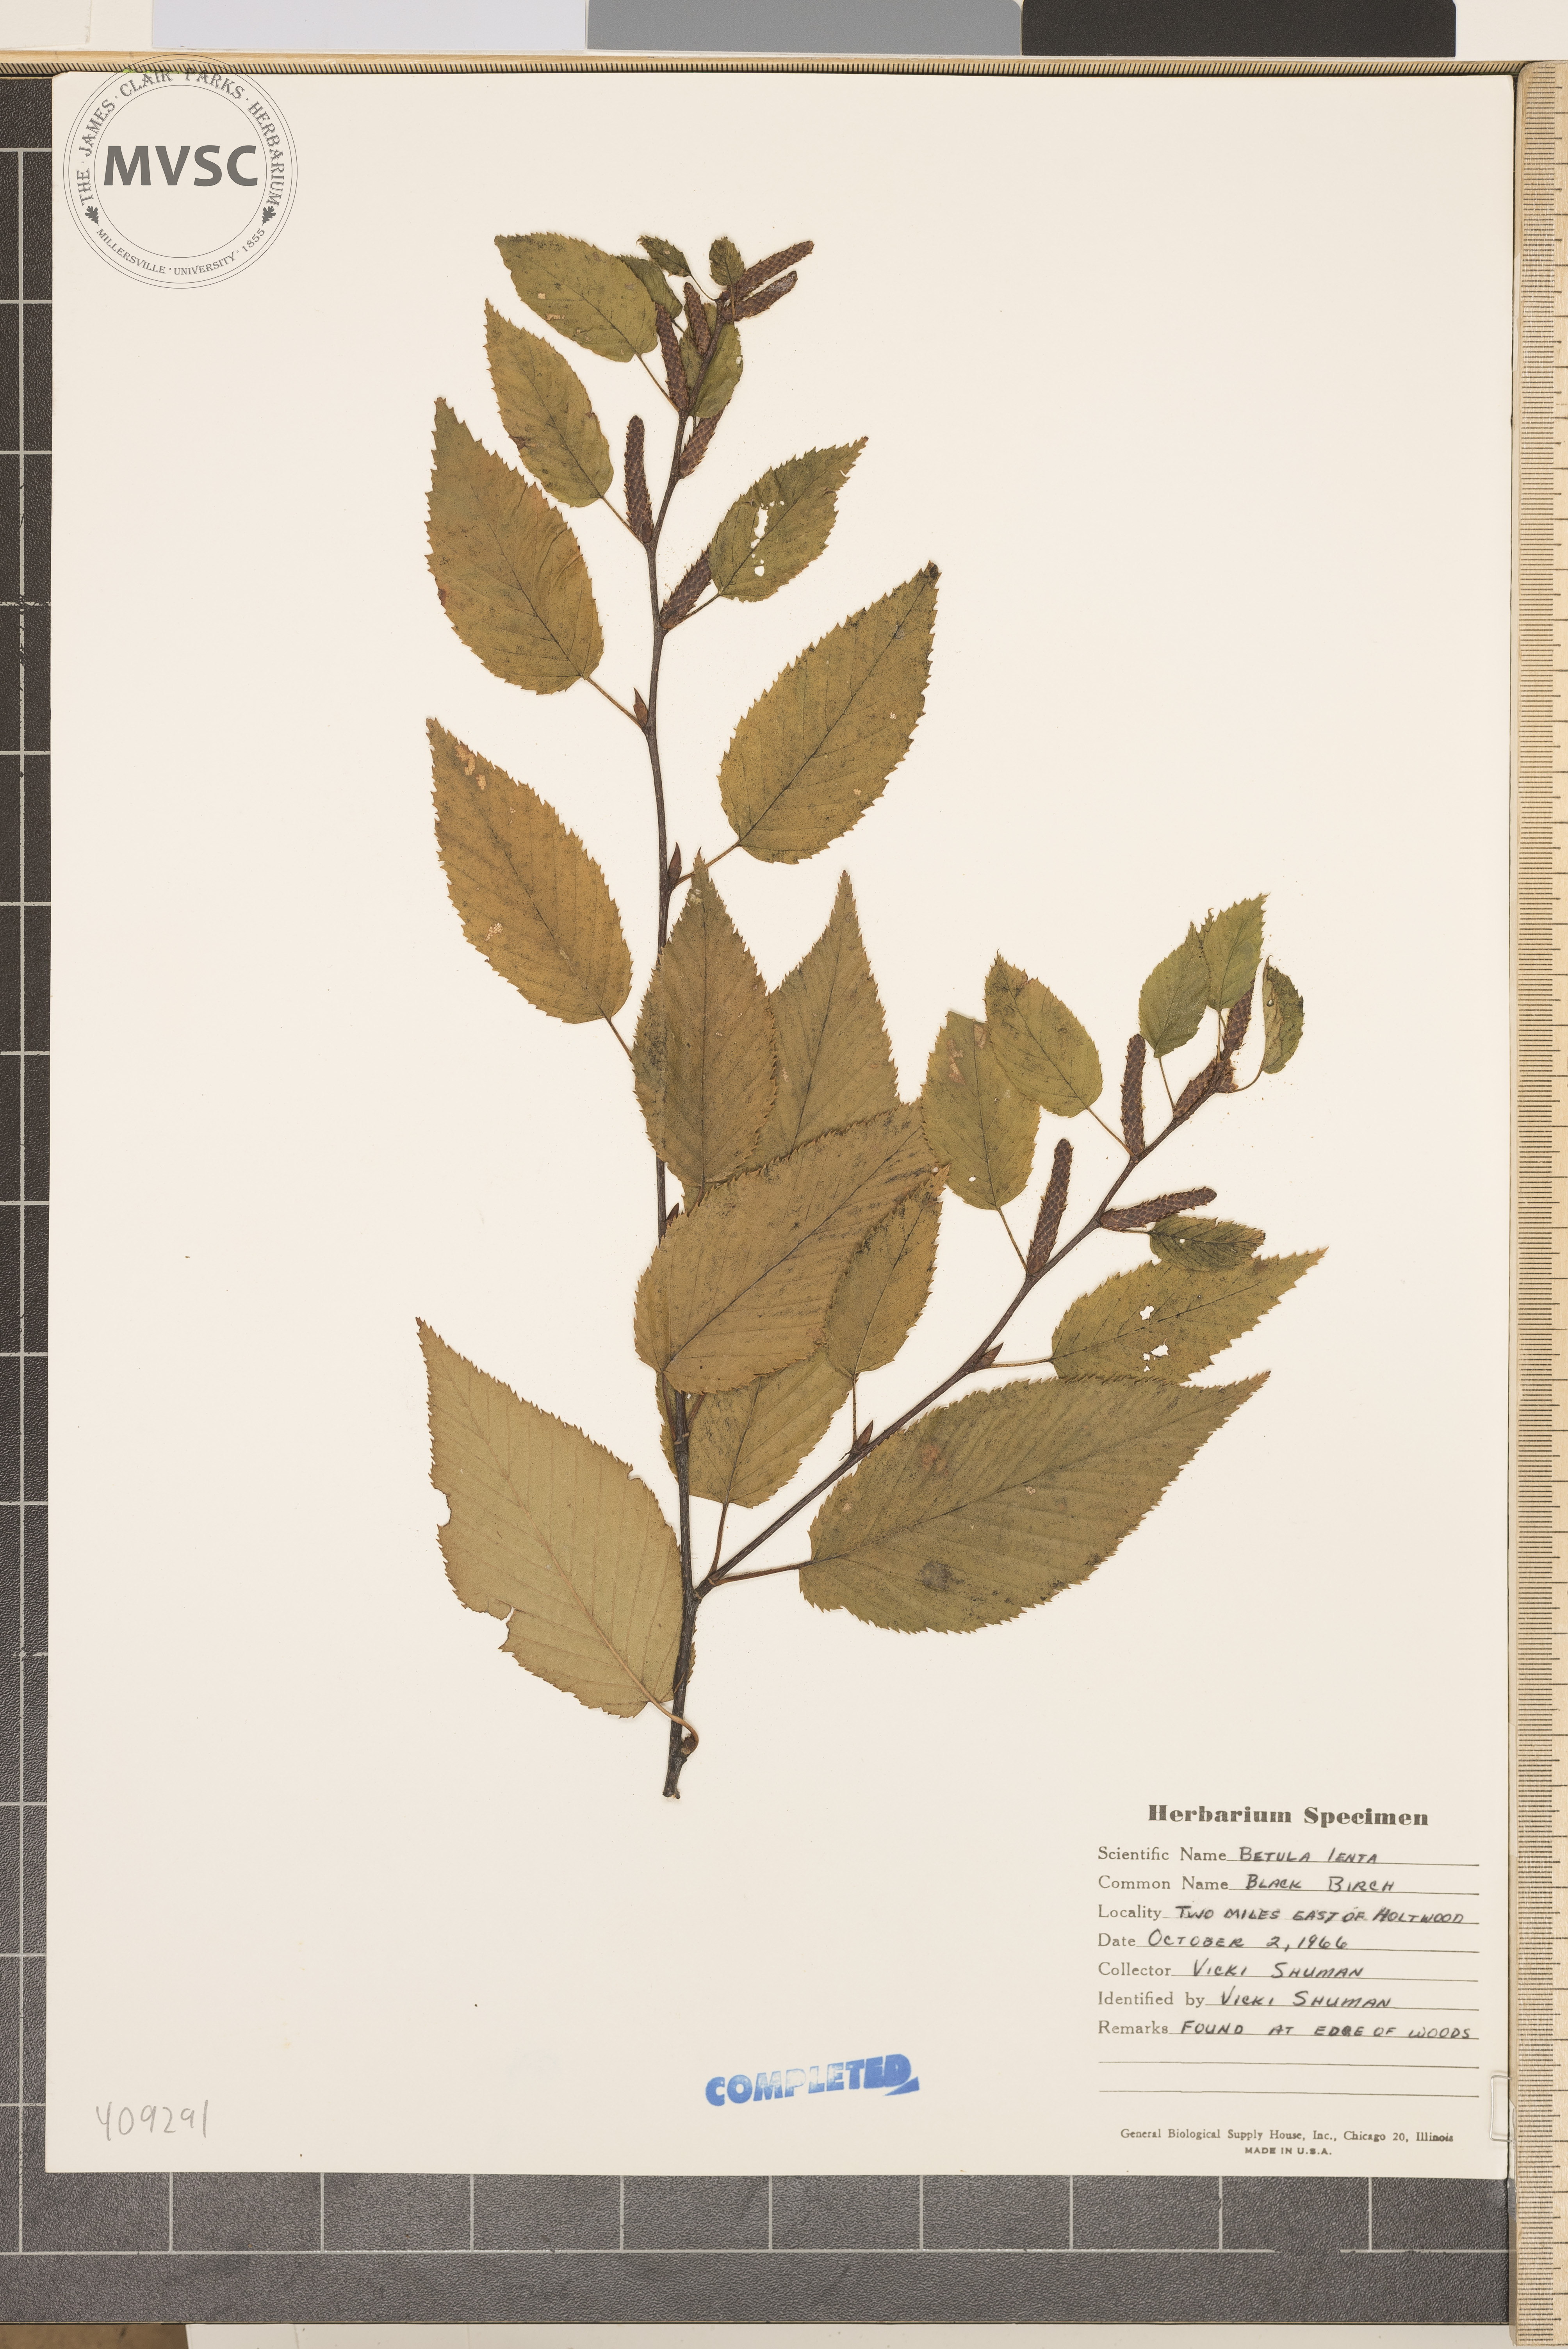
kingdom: Plantae
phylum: Tracheophyta
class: Magnoliopsida
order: Fagales
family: Betulaceae
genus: Betula
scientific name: Betula lenta
